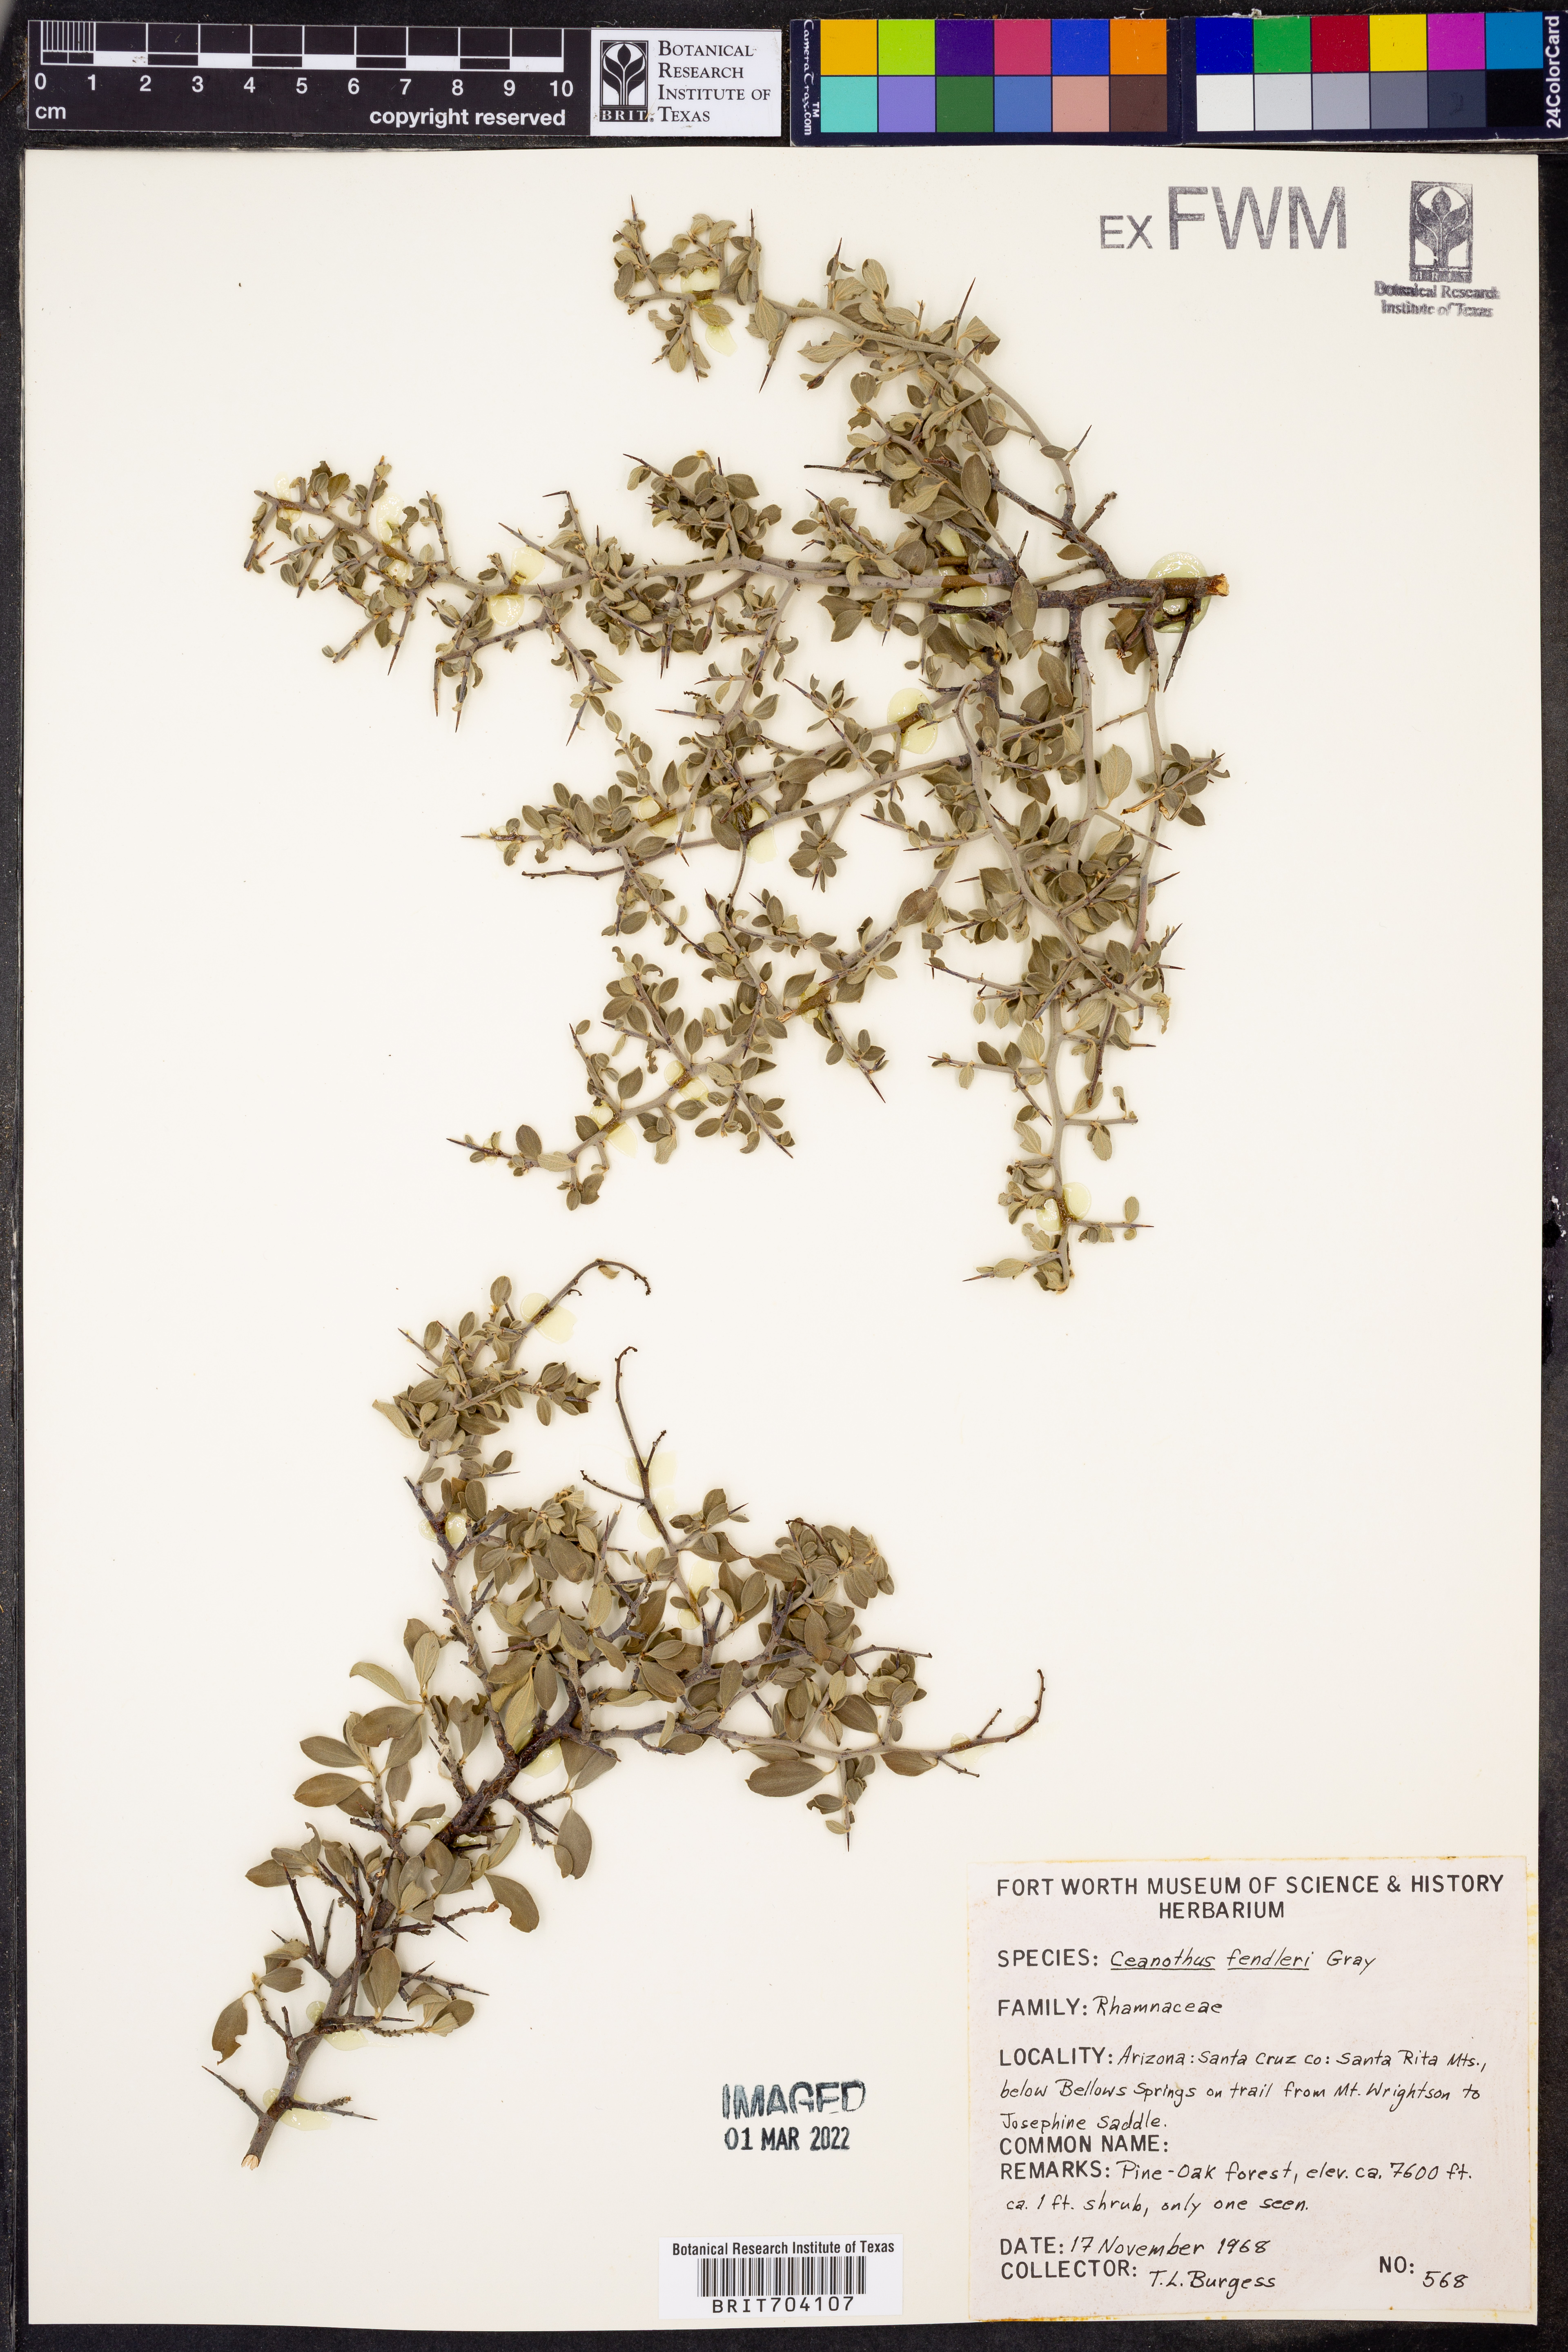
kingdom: Plantae
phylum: Tracheophyta
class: Magnoliopsida
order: Rosales
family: Rhamnaceae
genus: Ceanothus
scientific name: Ceanothus fendleri
